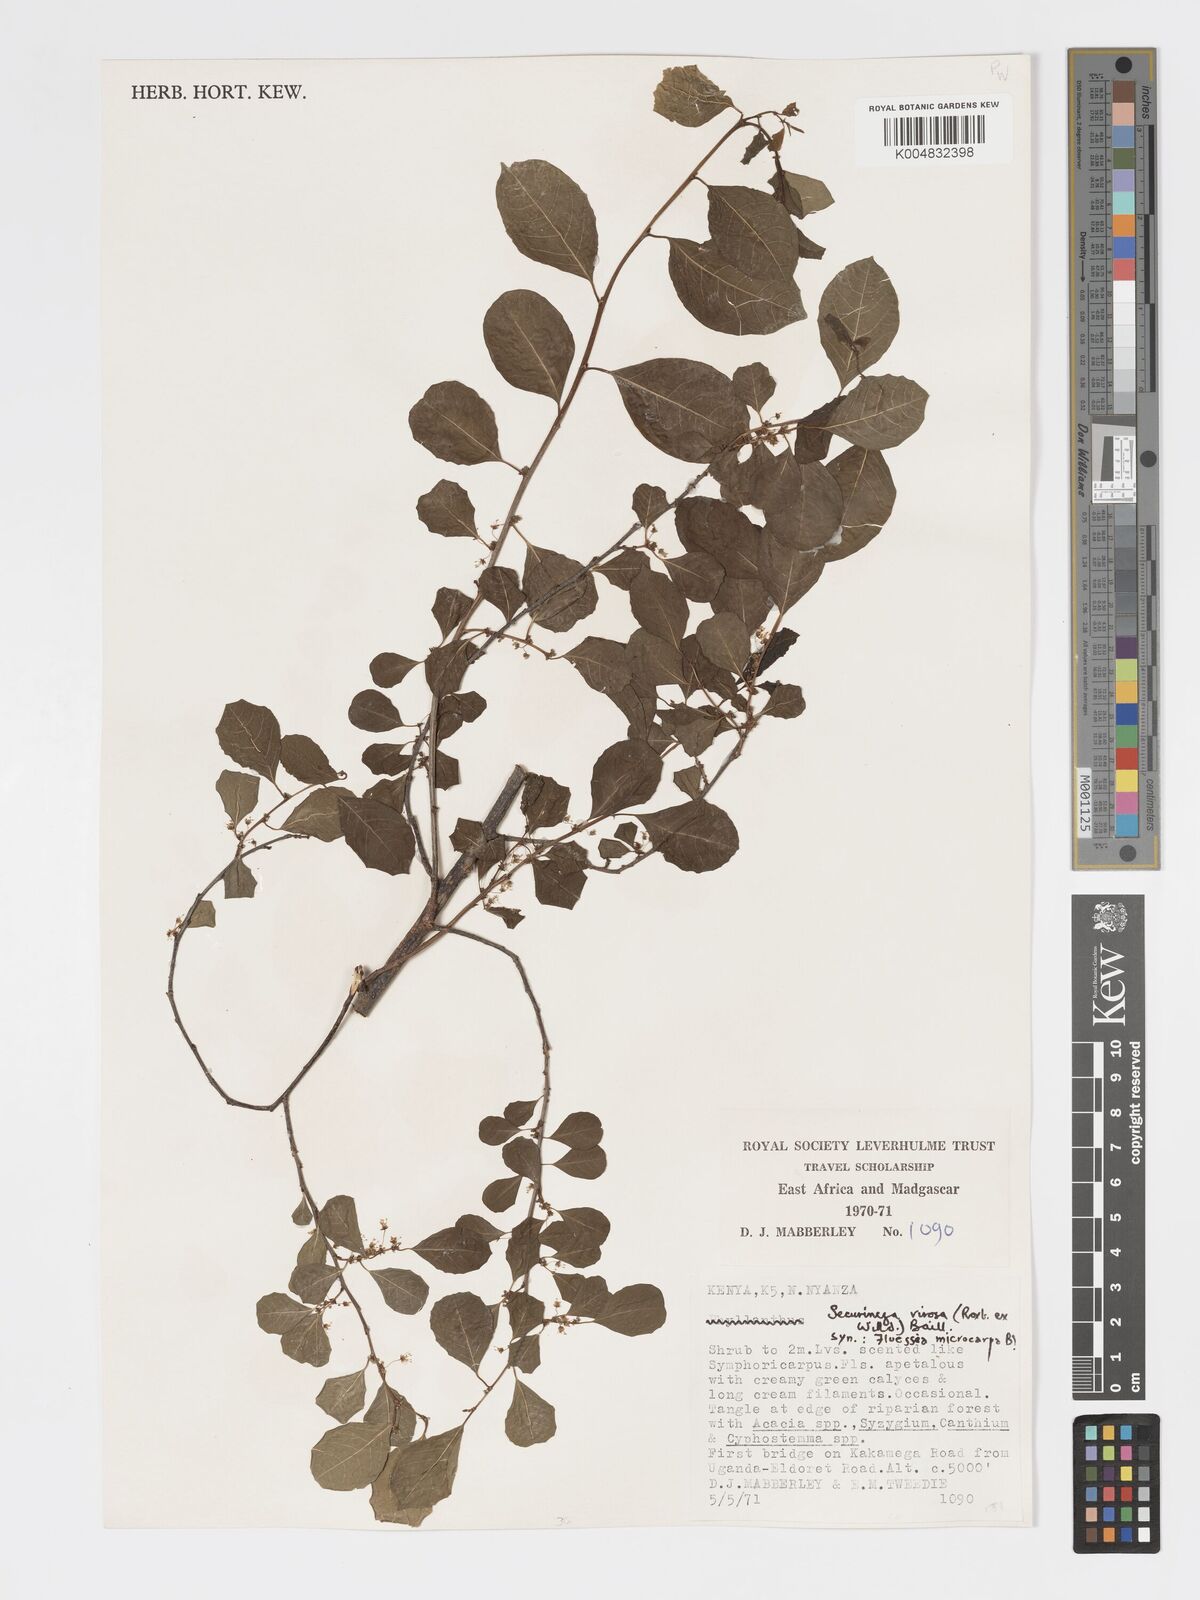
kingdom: Plantae
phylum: Tracheophyta
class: Magnoliopsida
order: Malpighiales
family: Phyllanthaceae
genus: Flueggea
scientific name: Flueggea virosa
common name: Common bushweed
